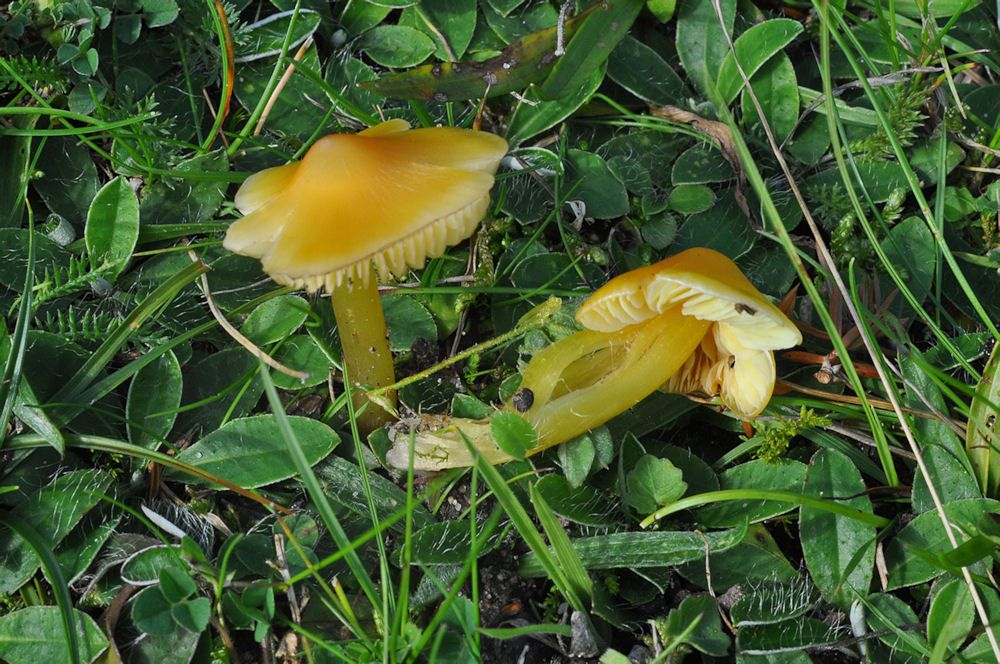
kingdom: Fungi
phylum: Basidiomycota
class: Agaricomycetes
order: Agaricales
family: Hygrophoraceae
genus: Hygrocybe
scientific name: Hygrocybe acutoconica
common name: spidspuklet vokshat
